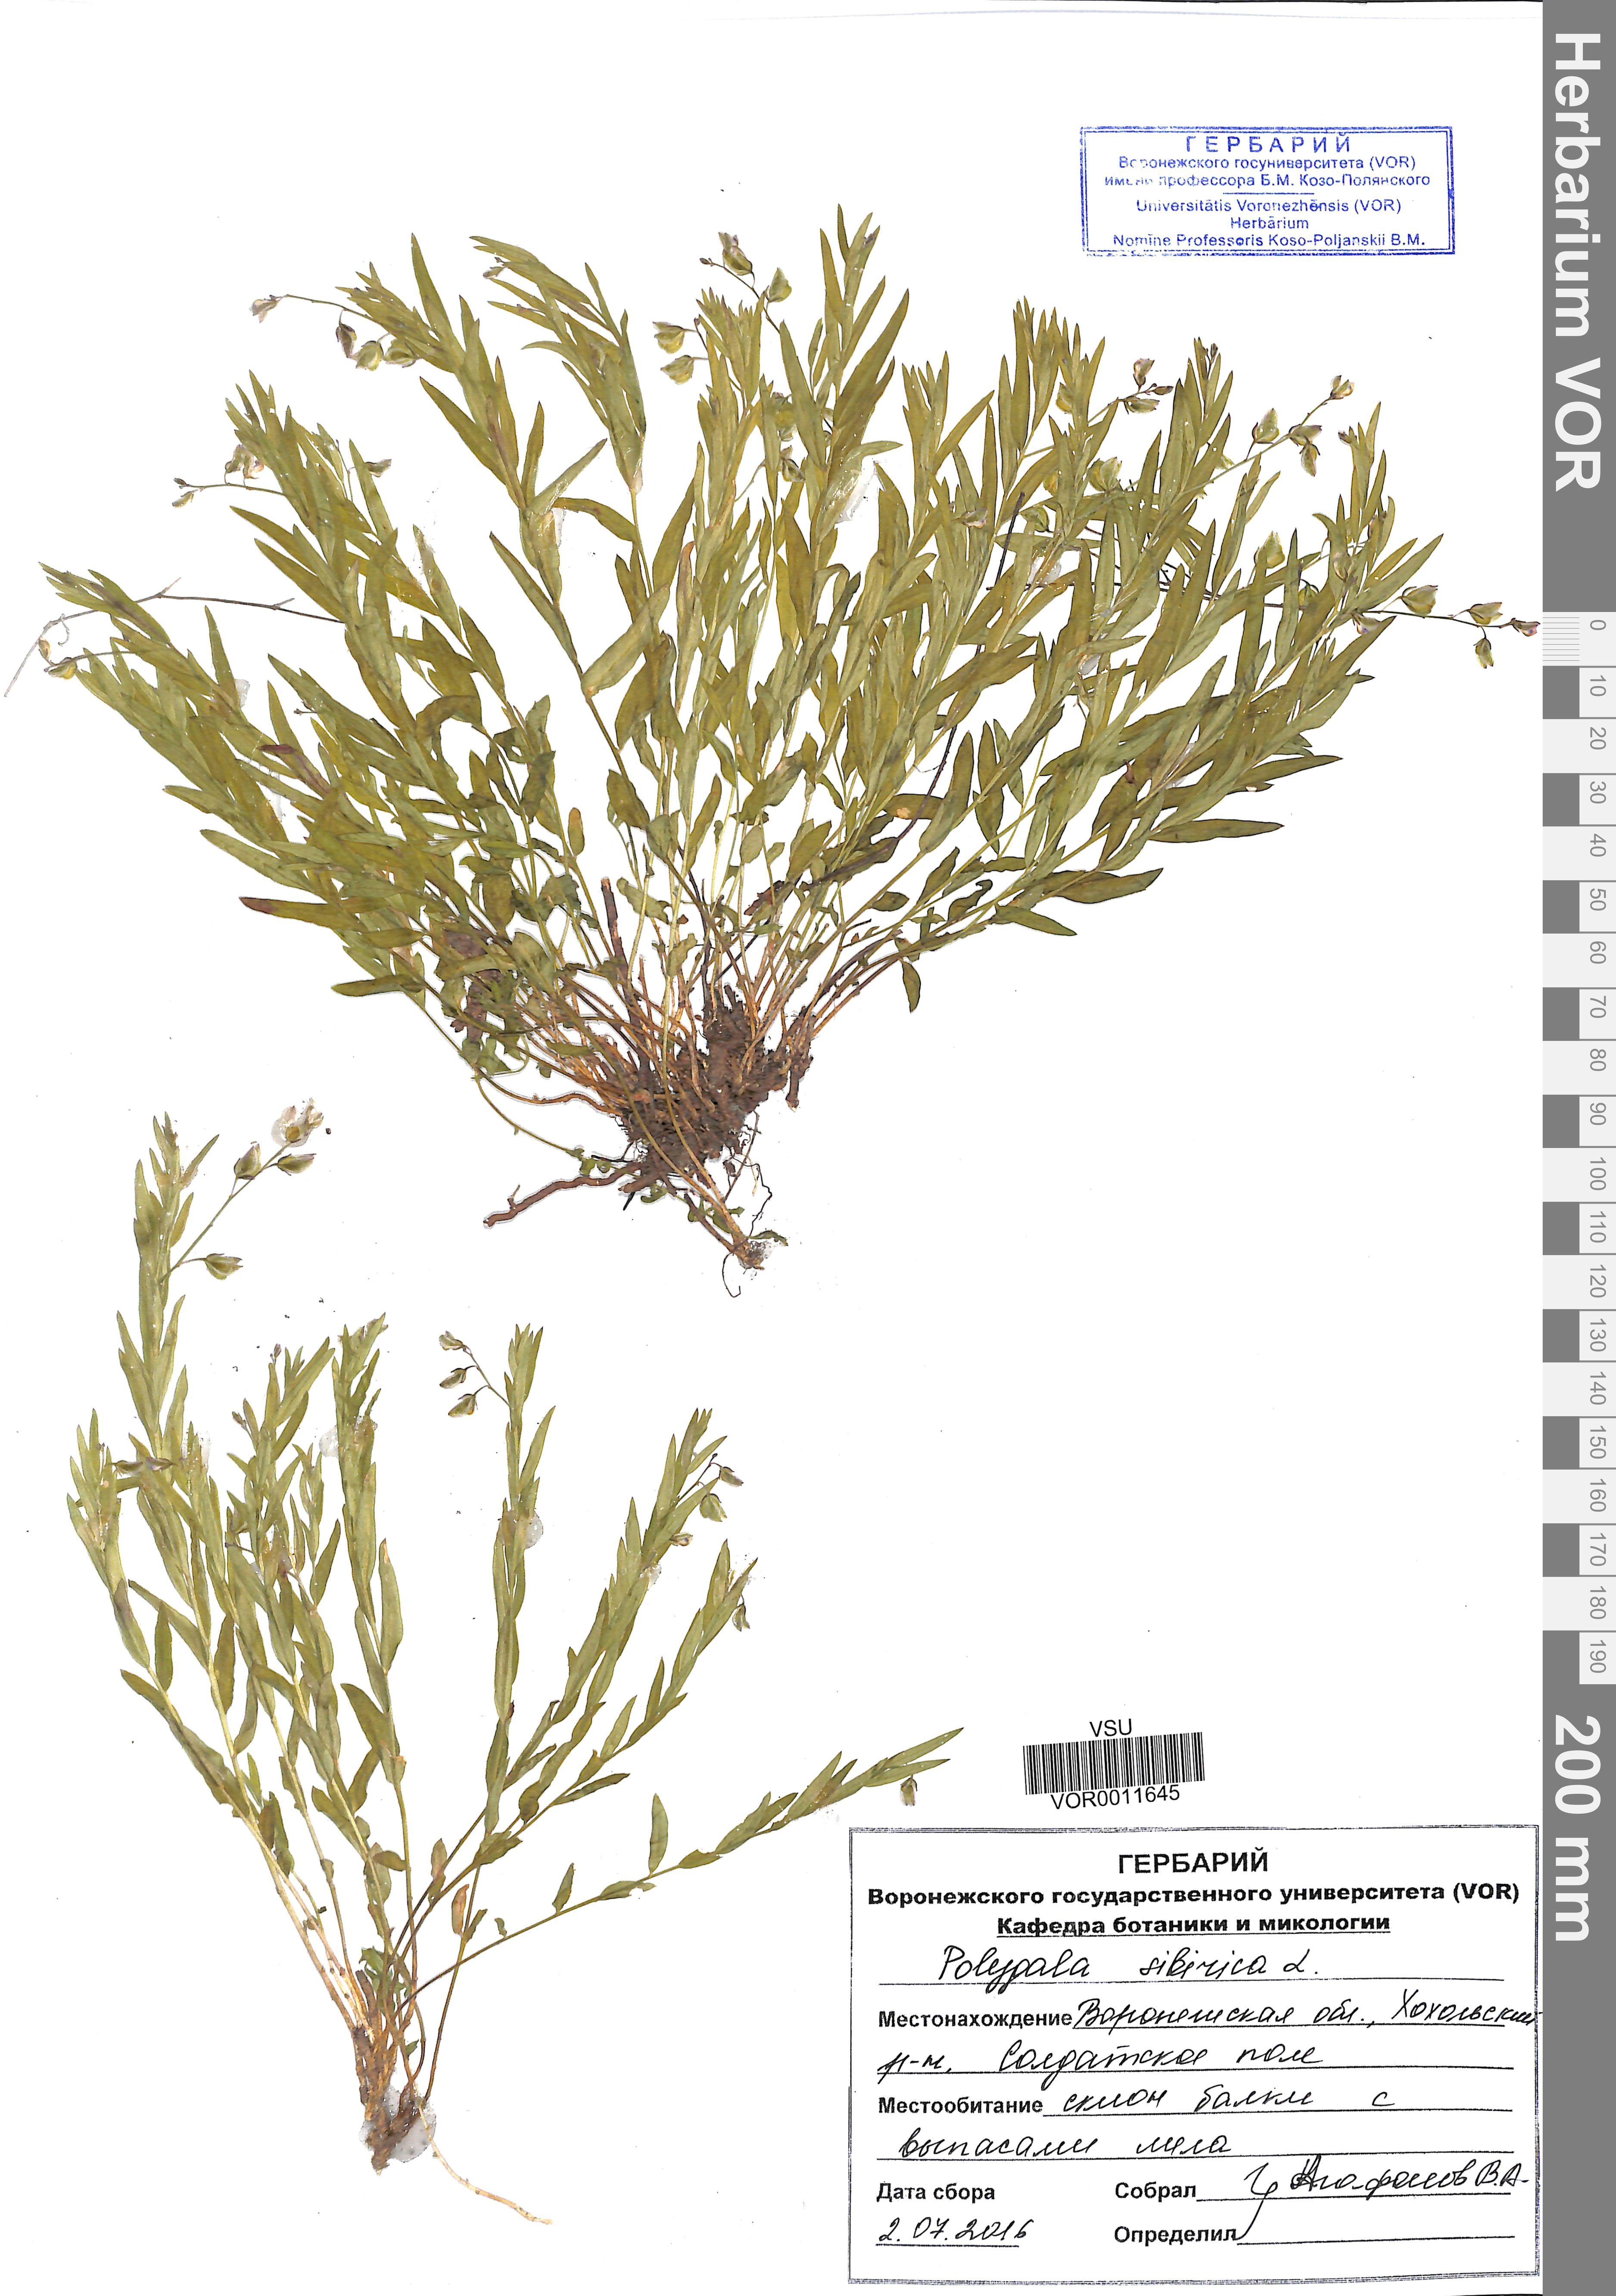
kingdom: Plantae
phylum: Tracheophyta
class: Magnoliopsida
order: Fabales
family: Polygalaceae
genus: Polygala
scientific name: Polygala sibirica
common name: Siberian polygala
